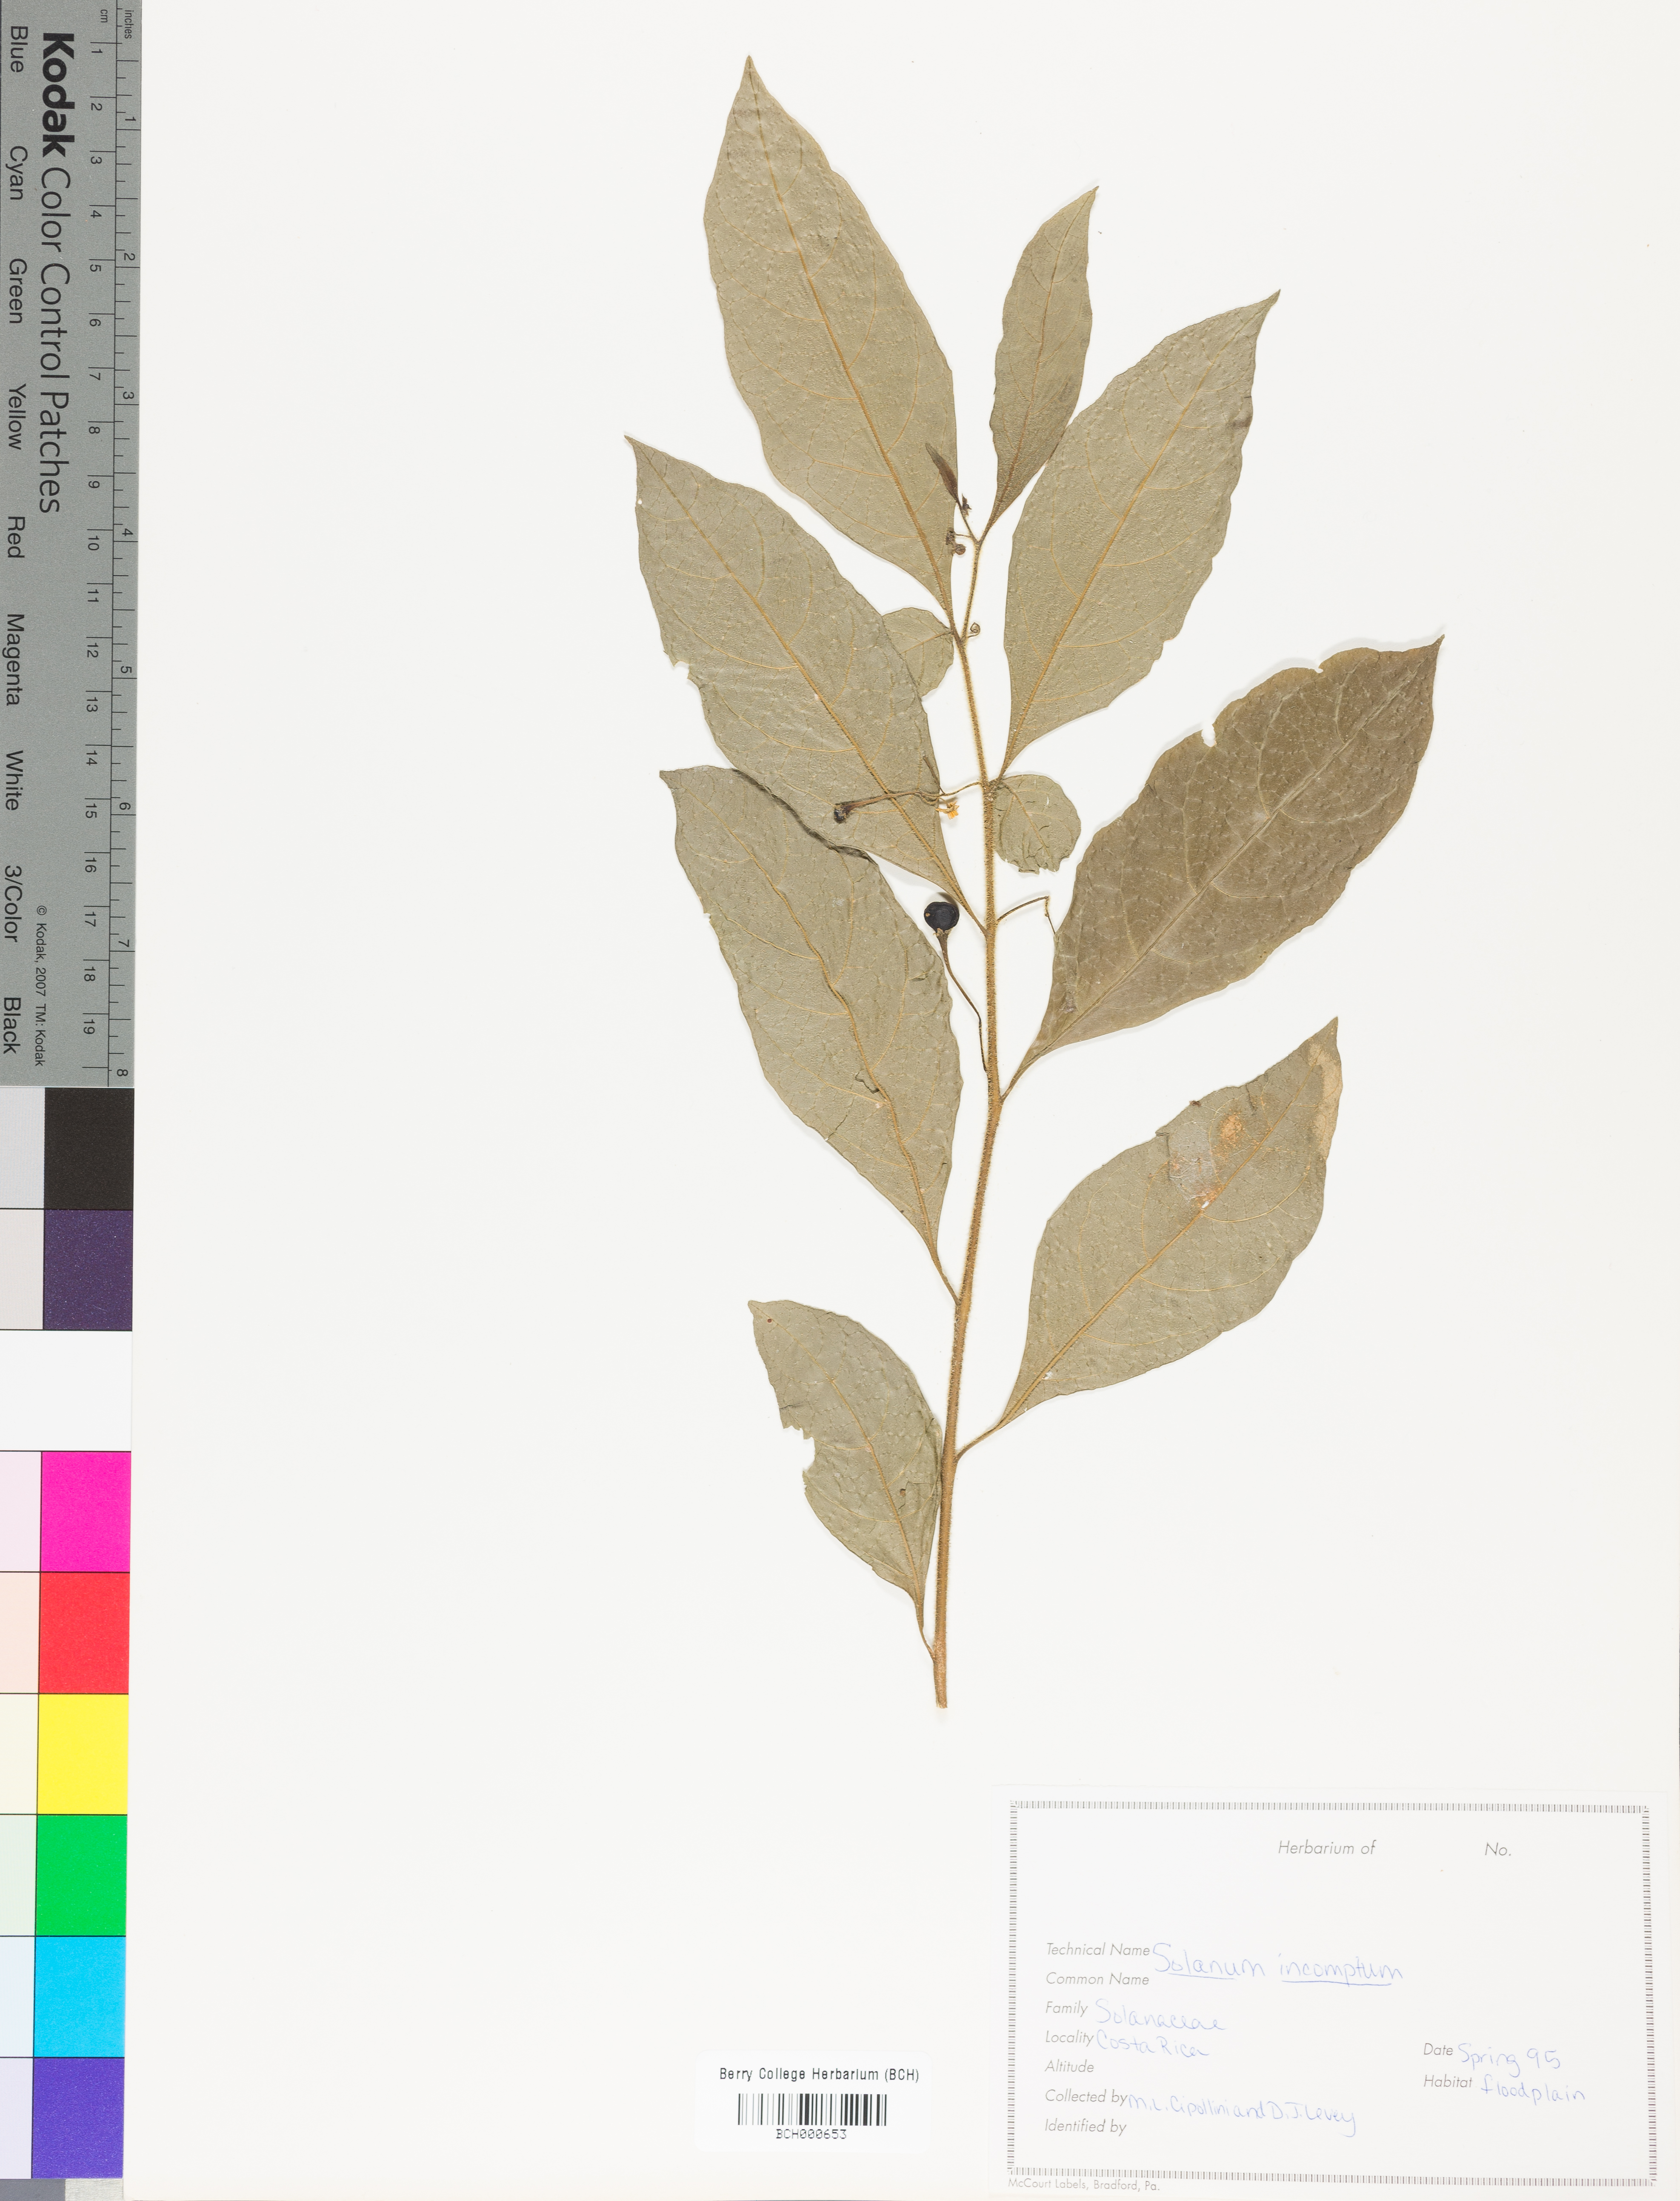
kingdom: Plantae
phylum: Tracheophyta
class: Magnoliopsida
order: Solanales
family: Solanaceae
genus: Solanum
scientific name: Solanum incomptum
